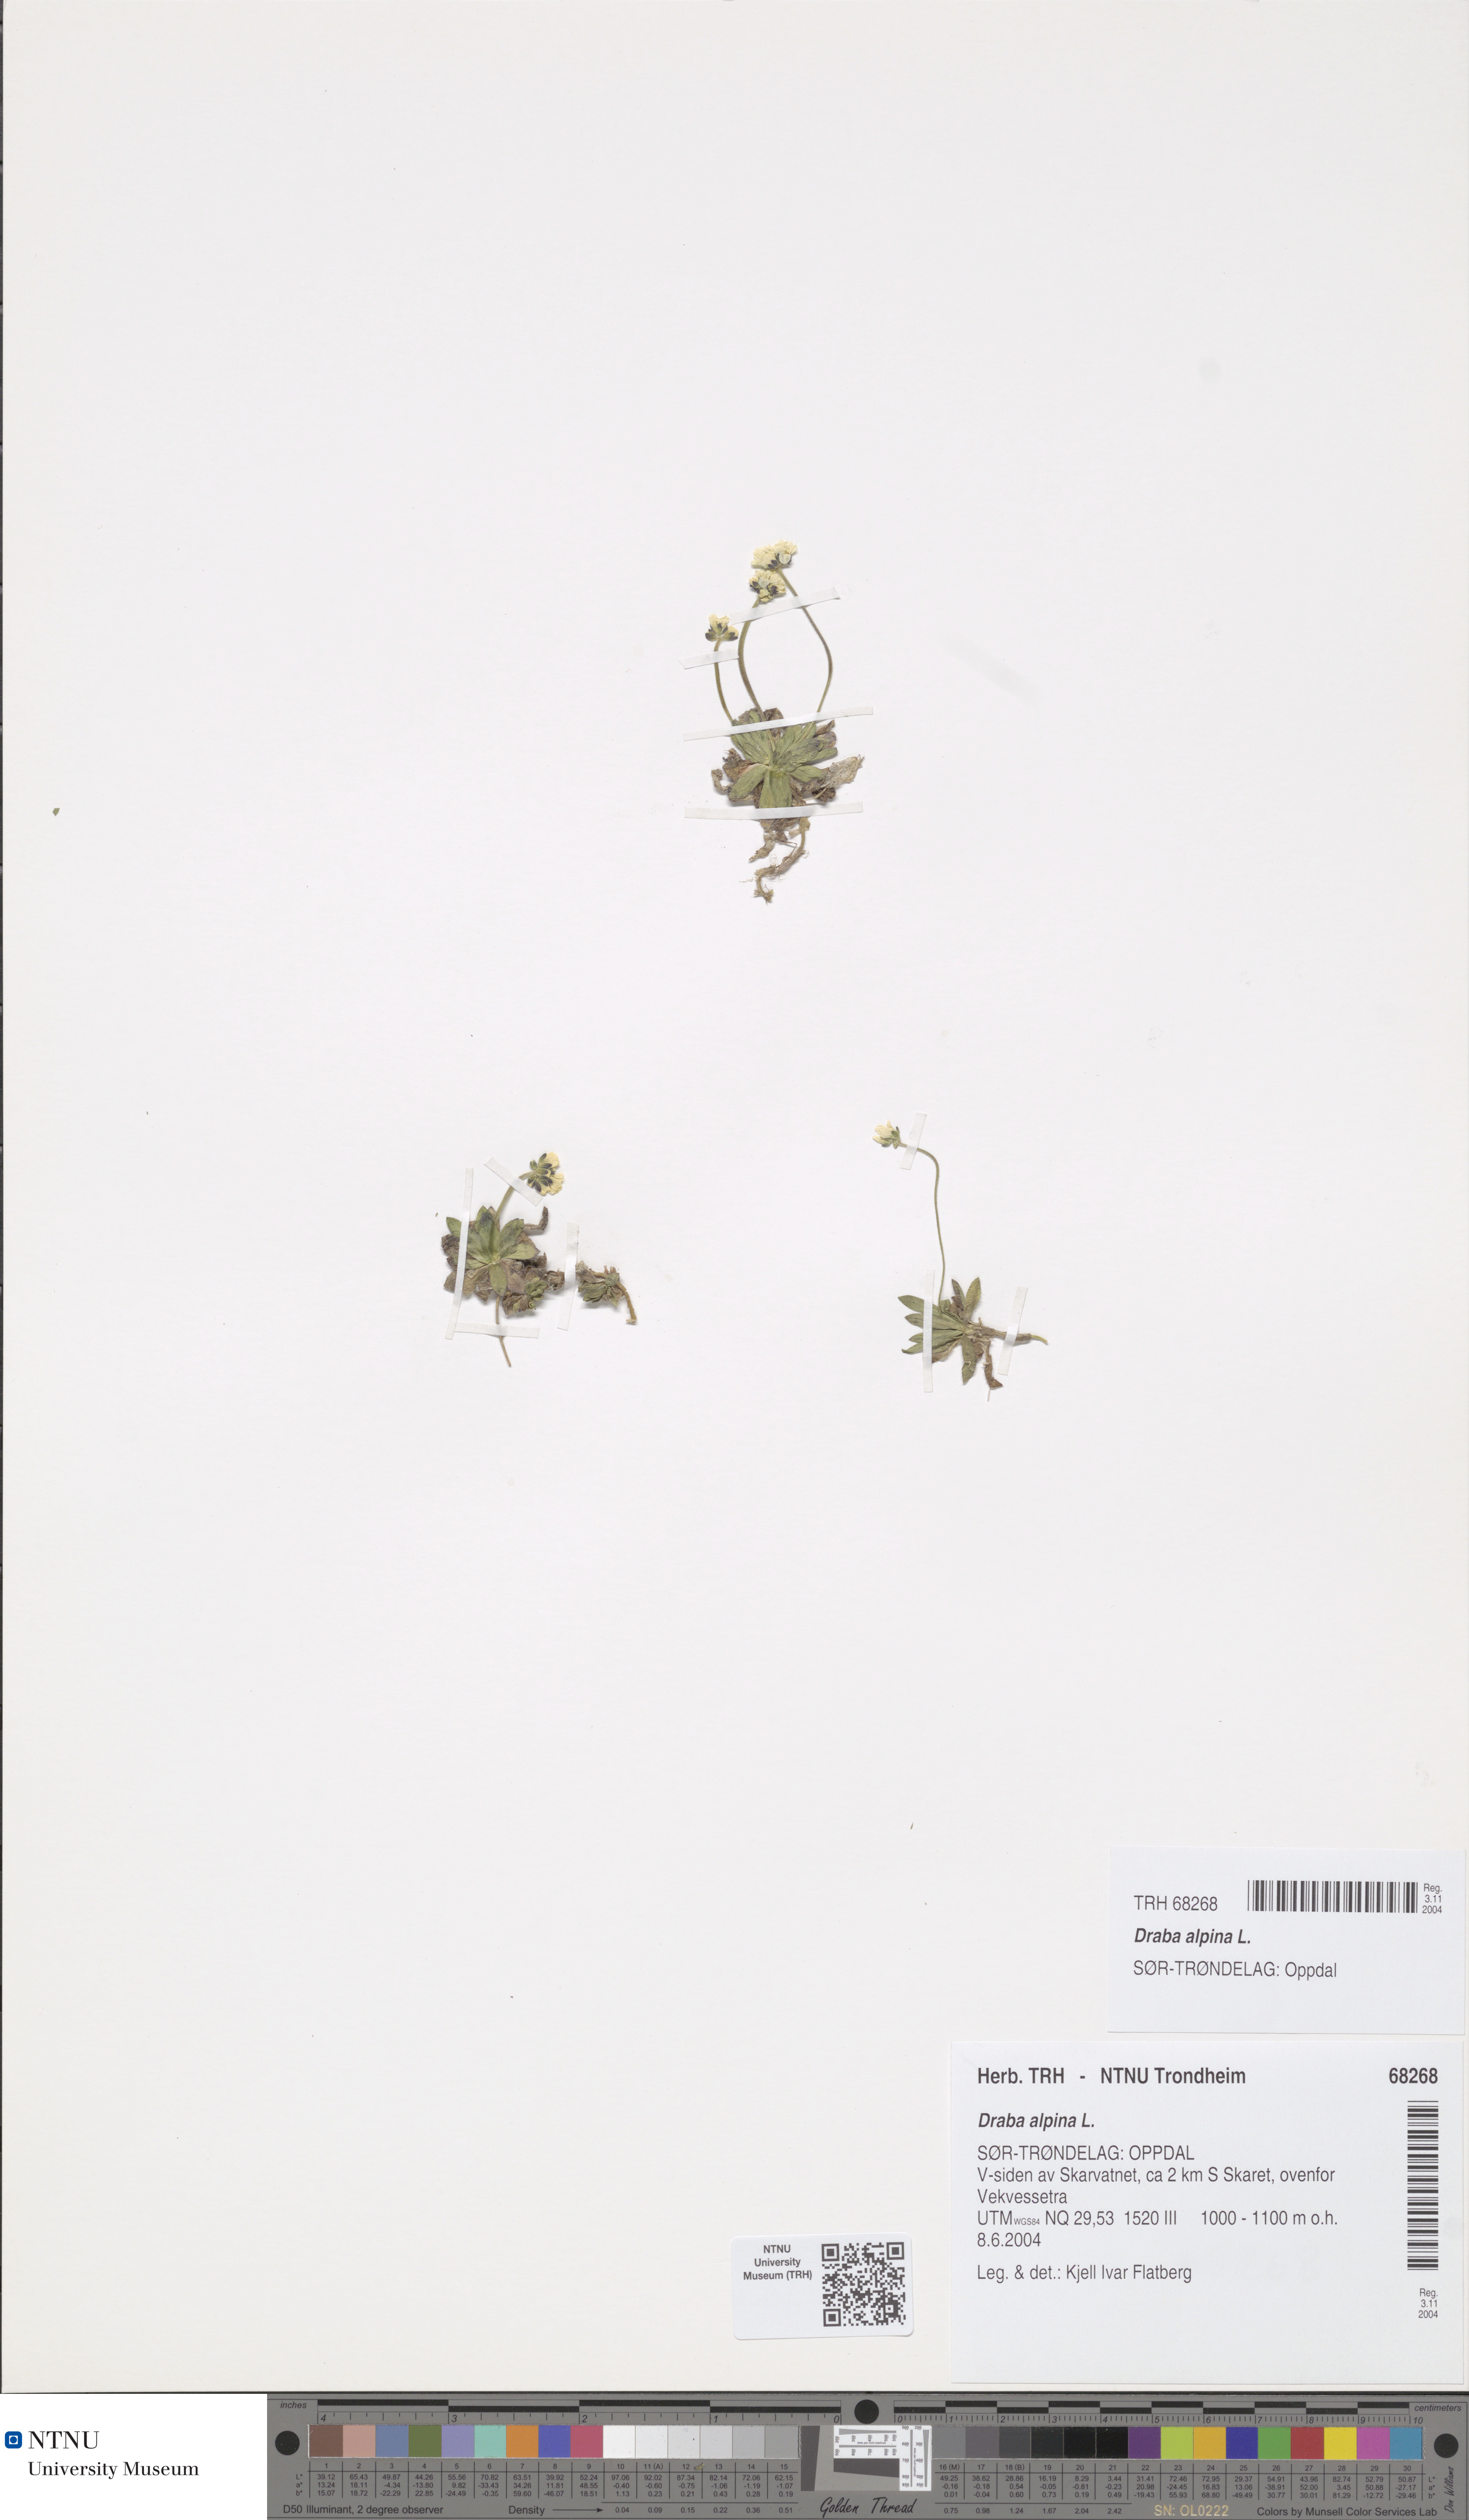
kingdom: Plantae
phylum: Tracheophyta
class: Magnoliopsida
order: Brassicales
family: Brassicaceae
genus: Draba
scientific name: Draba alpina
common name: Alpine draba
